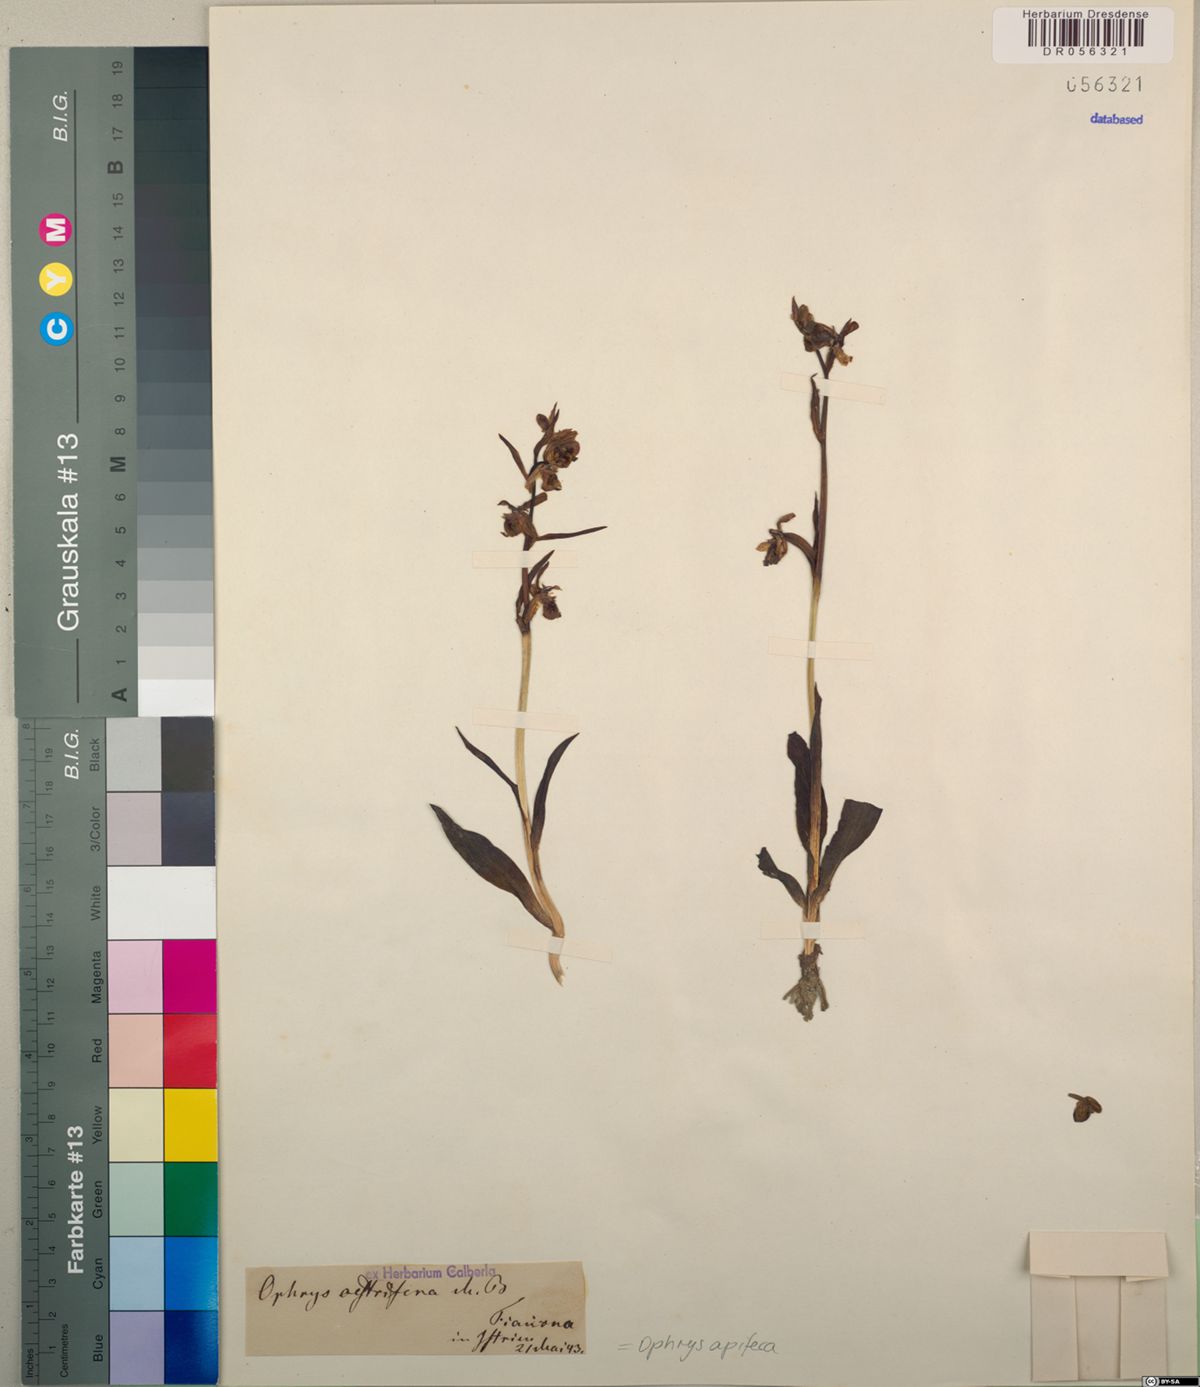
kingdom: Plantae
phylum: Tracheophyta
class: Liliopsida
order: Asparagales
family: Orchidaceae
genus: Ophrys
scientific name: Ophrys apifera
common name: Bee orchid
